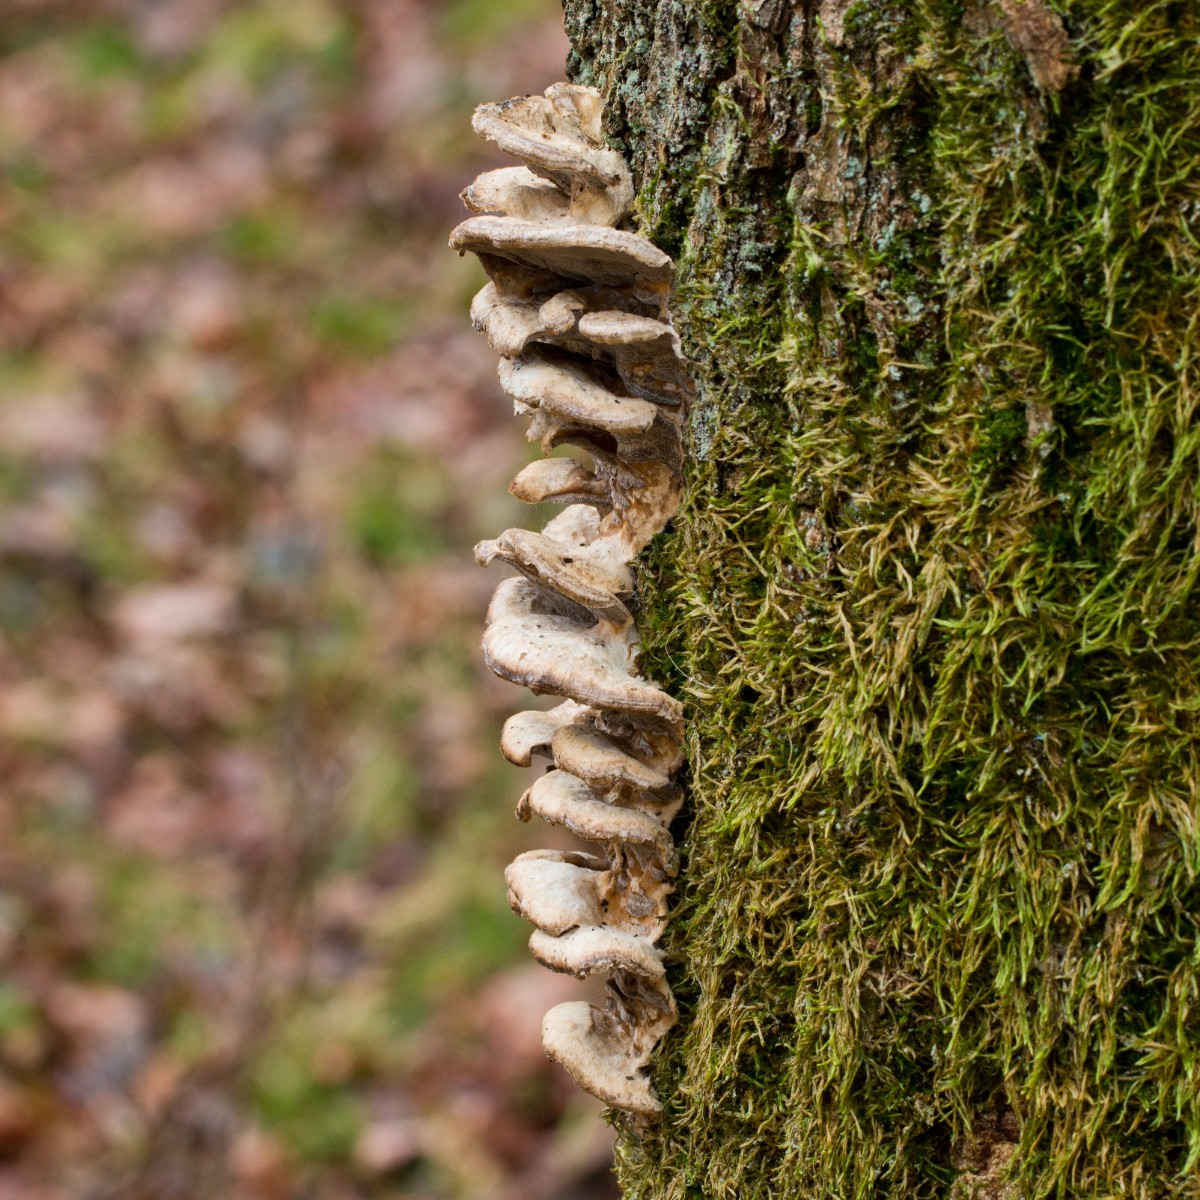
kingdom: Fungi
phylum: Basidiomycota
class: Agaricomycetes
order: Polyporales
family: Phanerochaetaceae
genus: Bjerkandera
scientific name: Bjerkandera adusta
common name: sveden sodporesvamp
